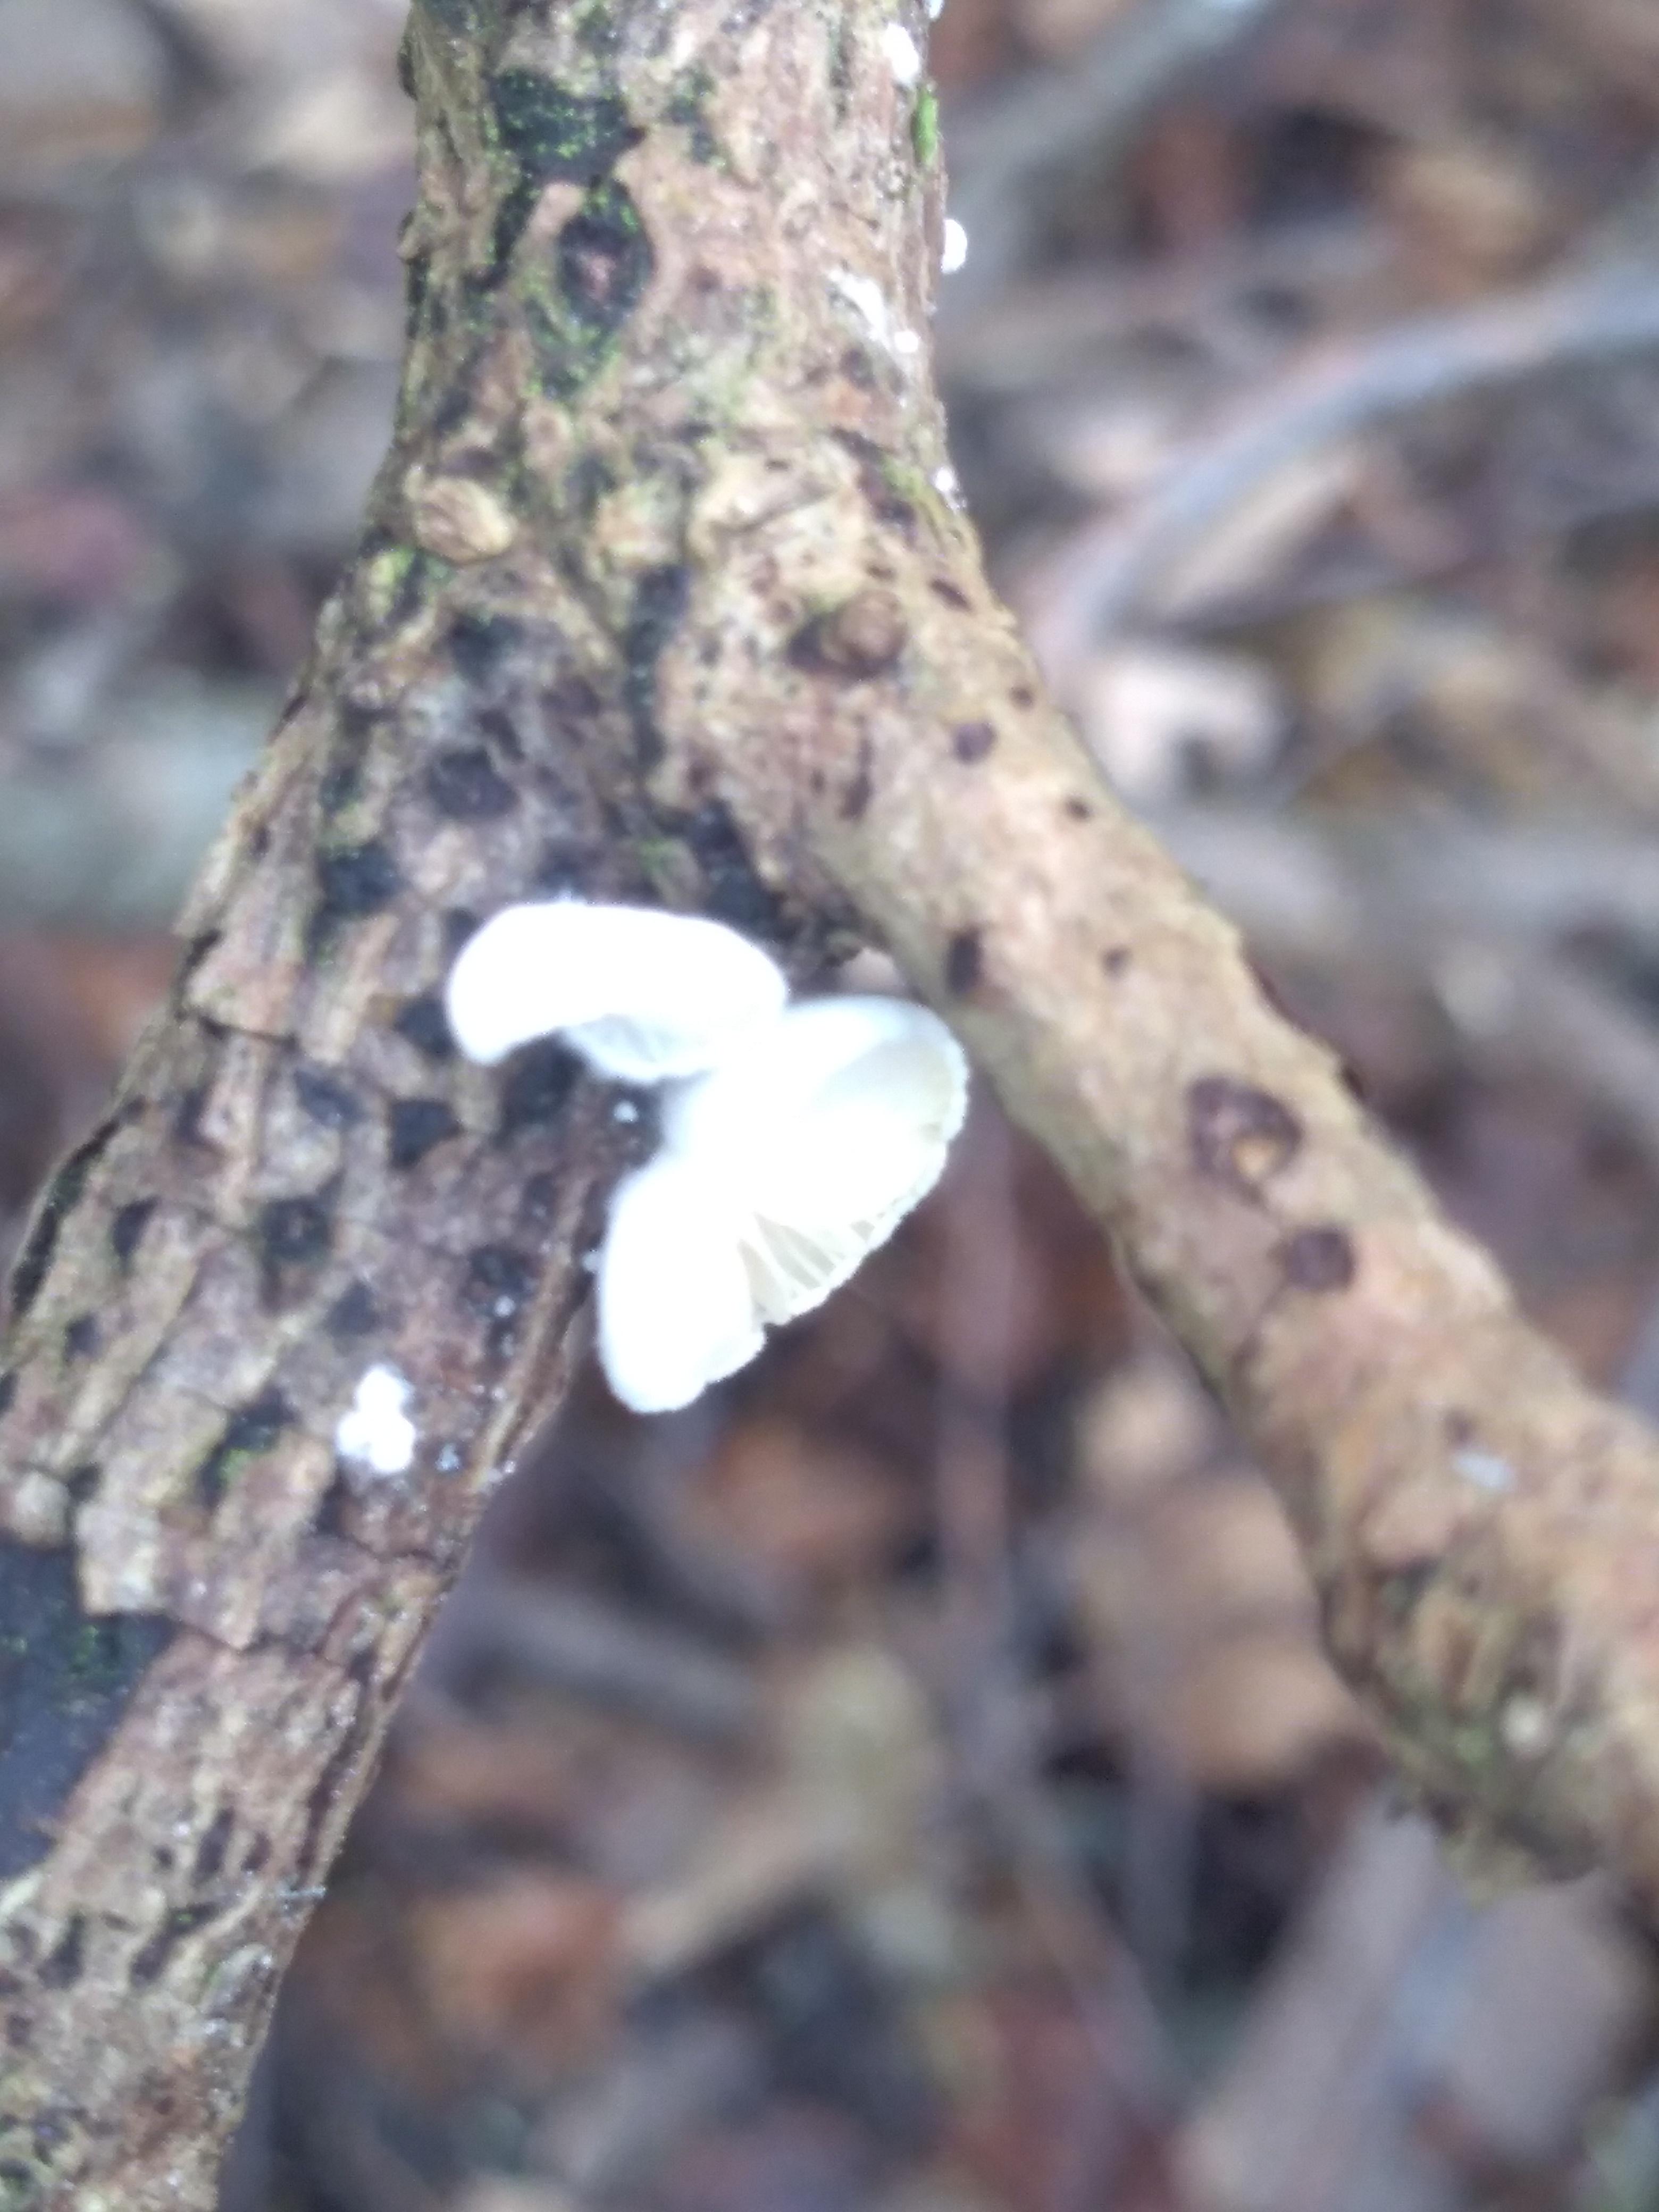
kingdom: Fungi
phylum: Basidiomycota
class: Agaricomycetes
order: Agaricales
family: Crepidotaceae
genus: Crepidotus
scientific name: Crepidotus
